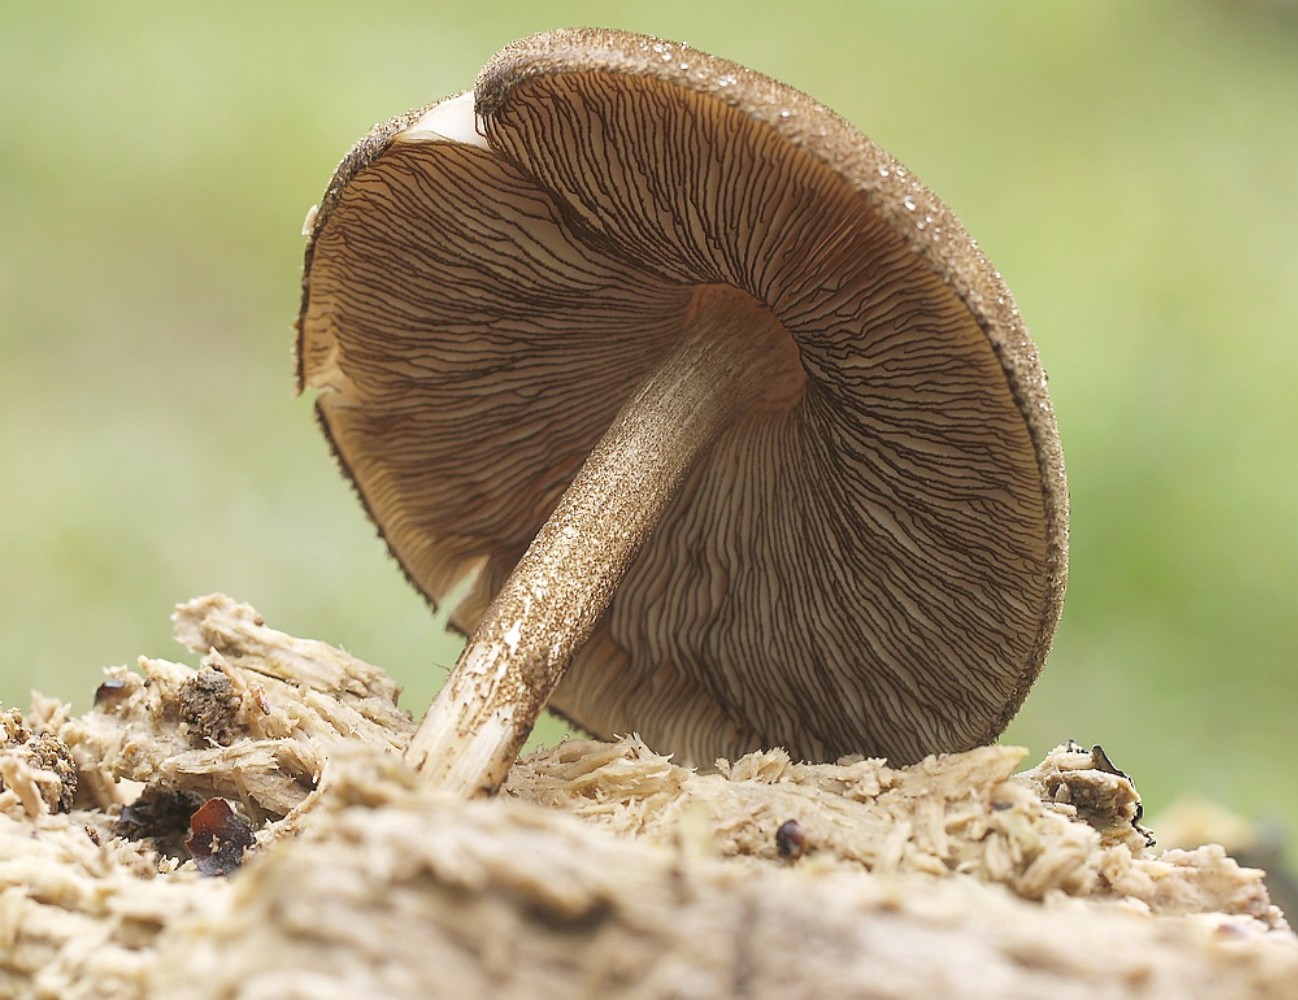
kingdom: Fungi
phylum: Basidiomycota
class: Agaricomycetes
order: Agaricales
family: Pluteaceae
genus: Pluteus
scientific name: Pluteus umbrosus
